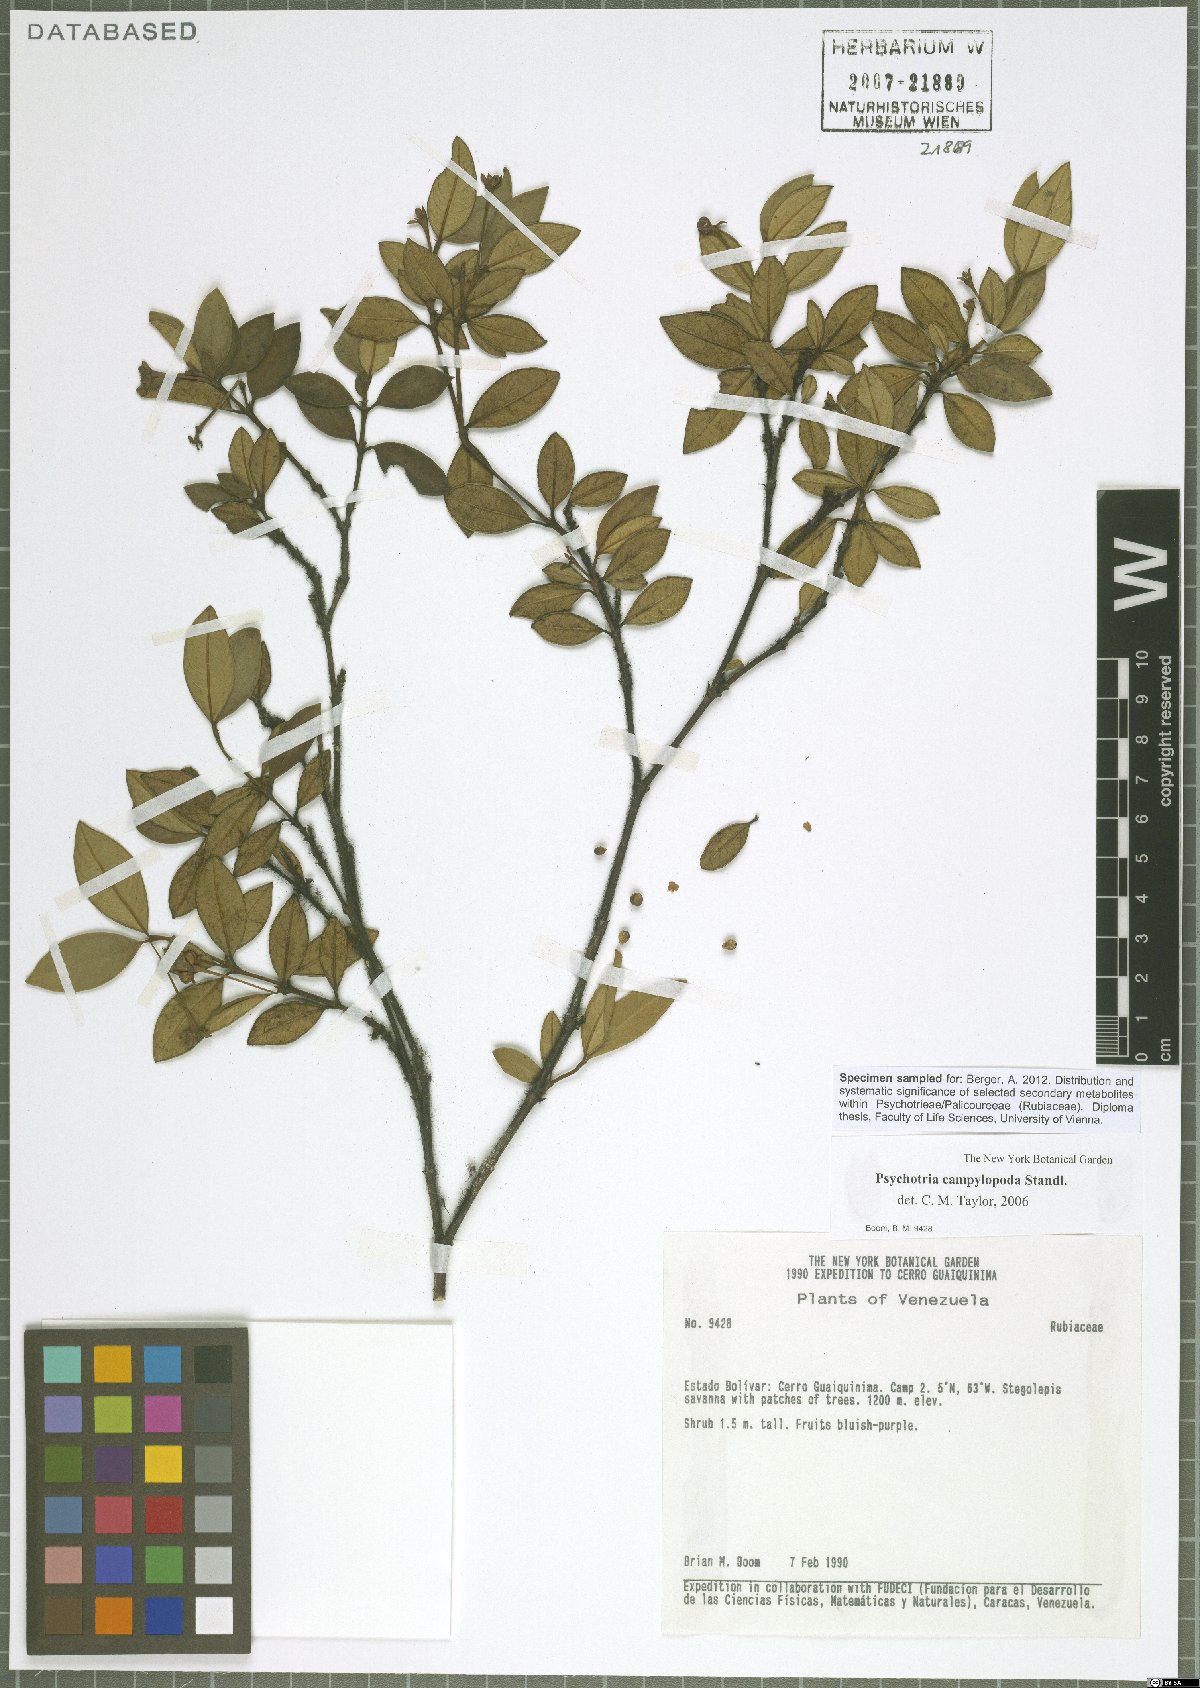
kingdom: Plantae
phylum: Tracheophyta
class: Magnoliopsida
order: Gentianales
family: Rubiaceae
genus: Palicourea
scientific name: Palicourea campylopoda
